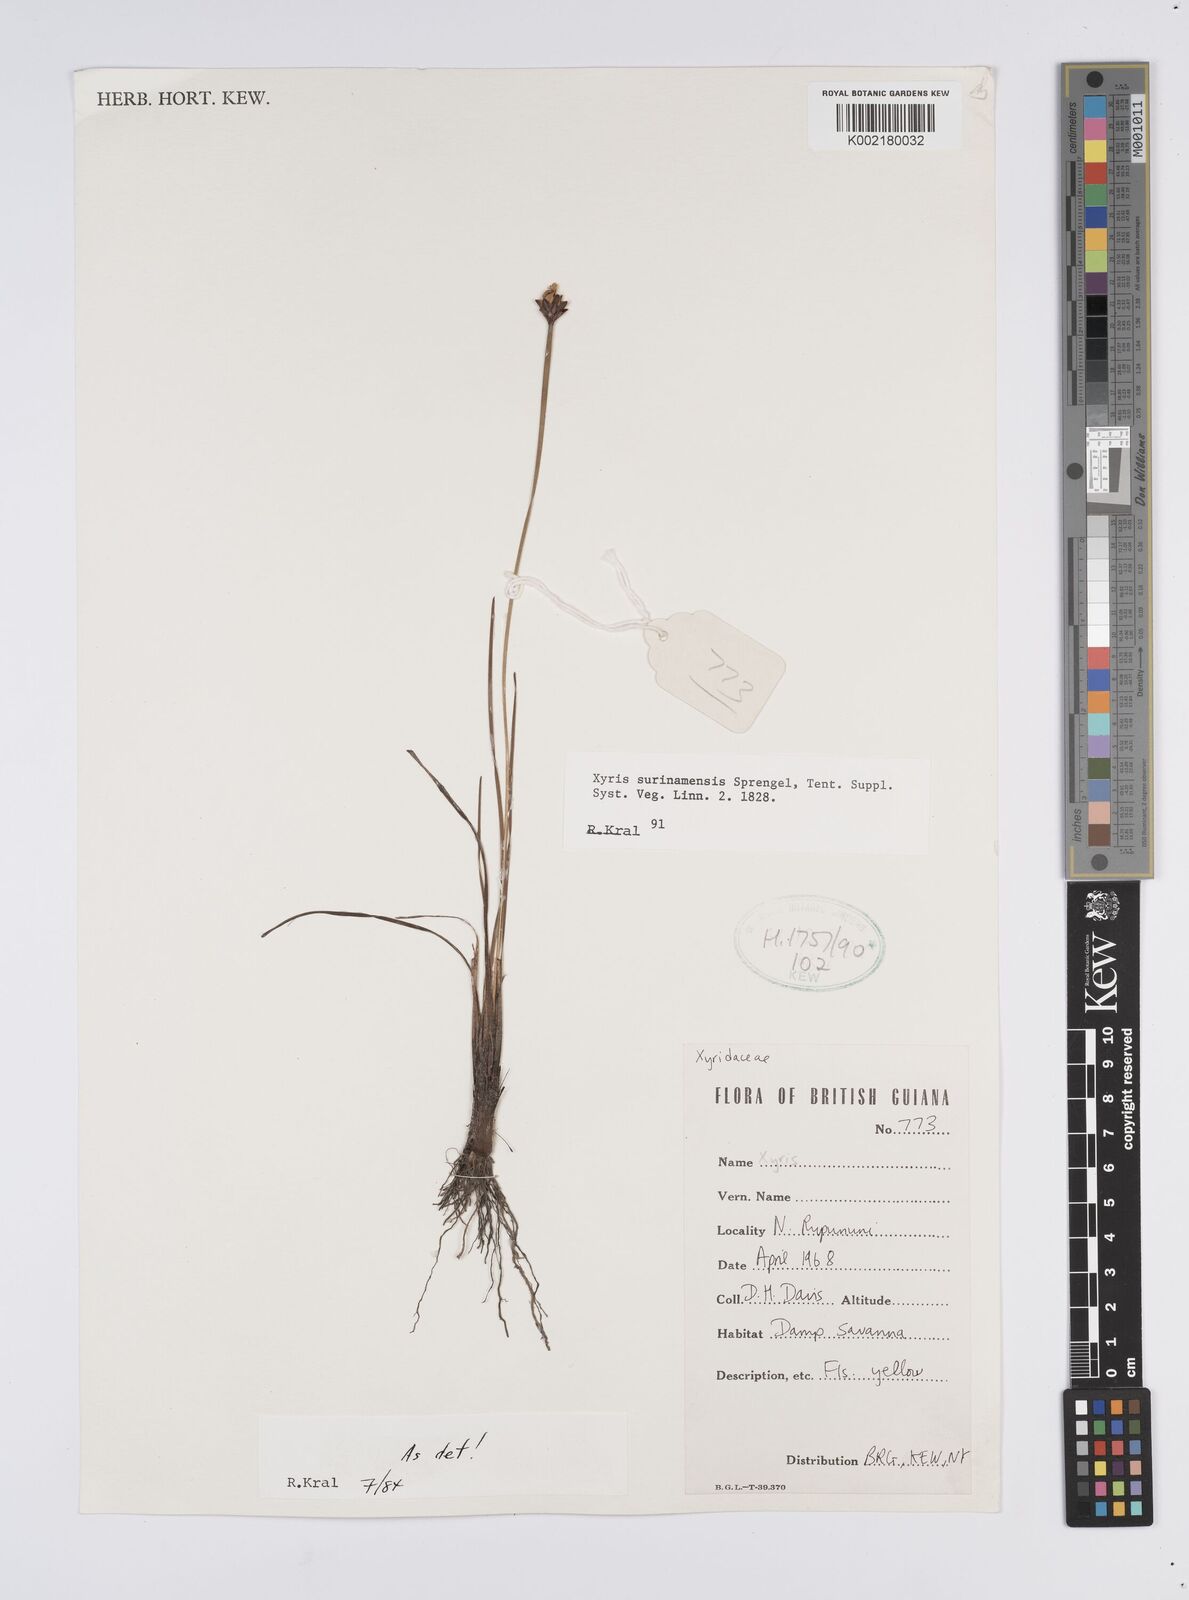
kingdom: Plantae
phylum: Tracheophyta
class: Liliopsida
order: Poales
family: Xyridaceae
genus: Xyris
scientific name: Xyris surinamensis
